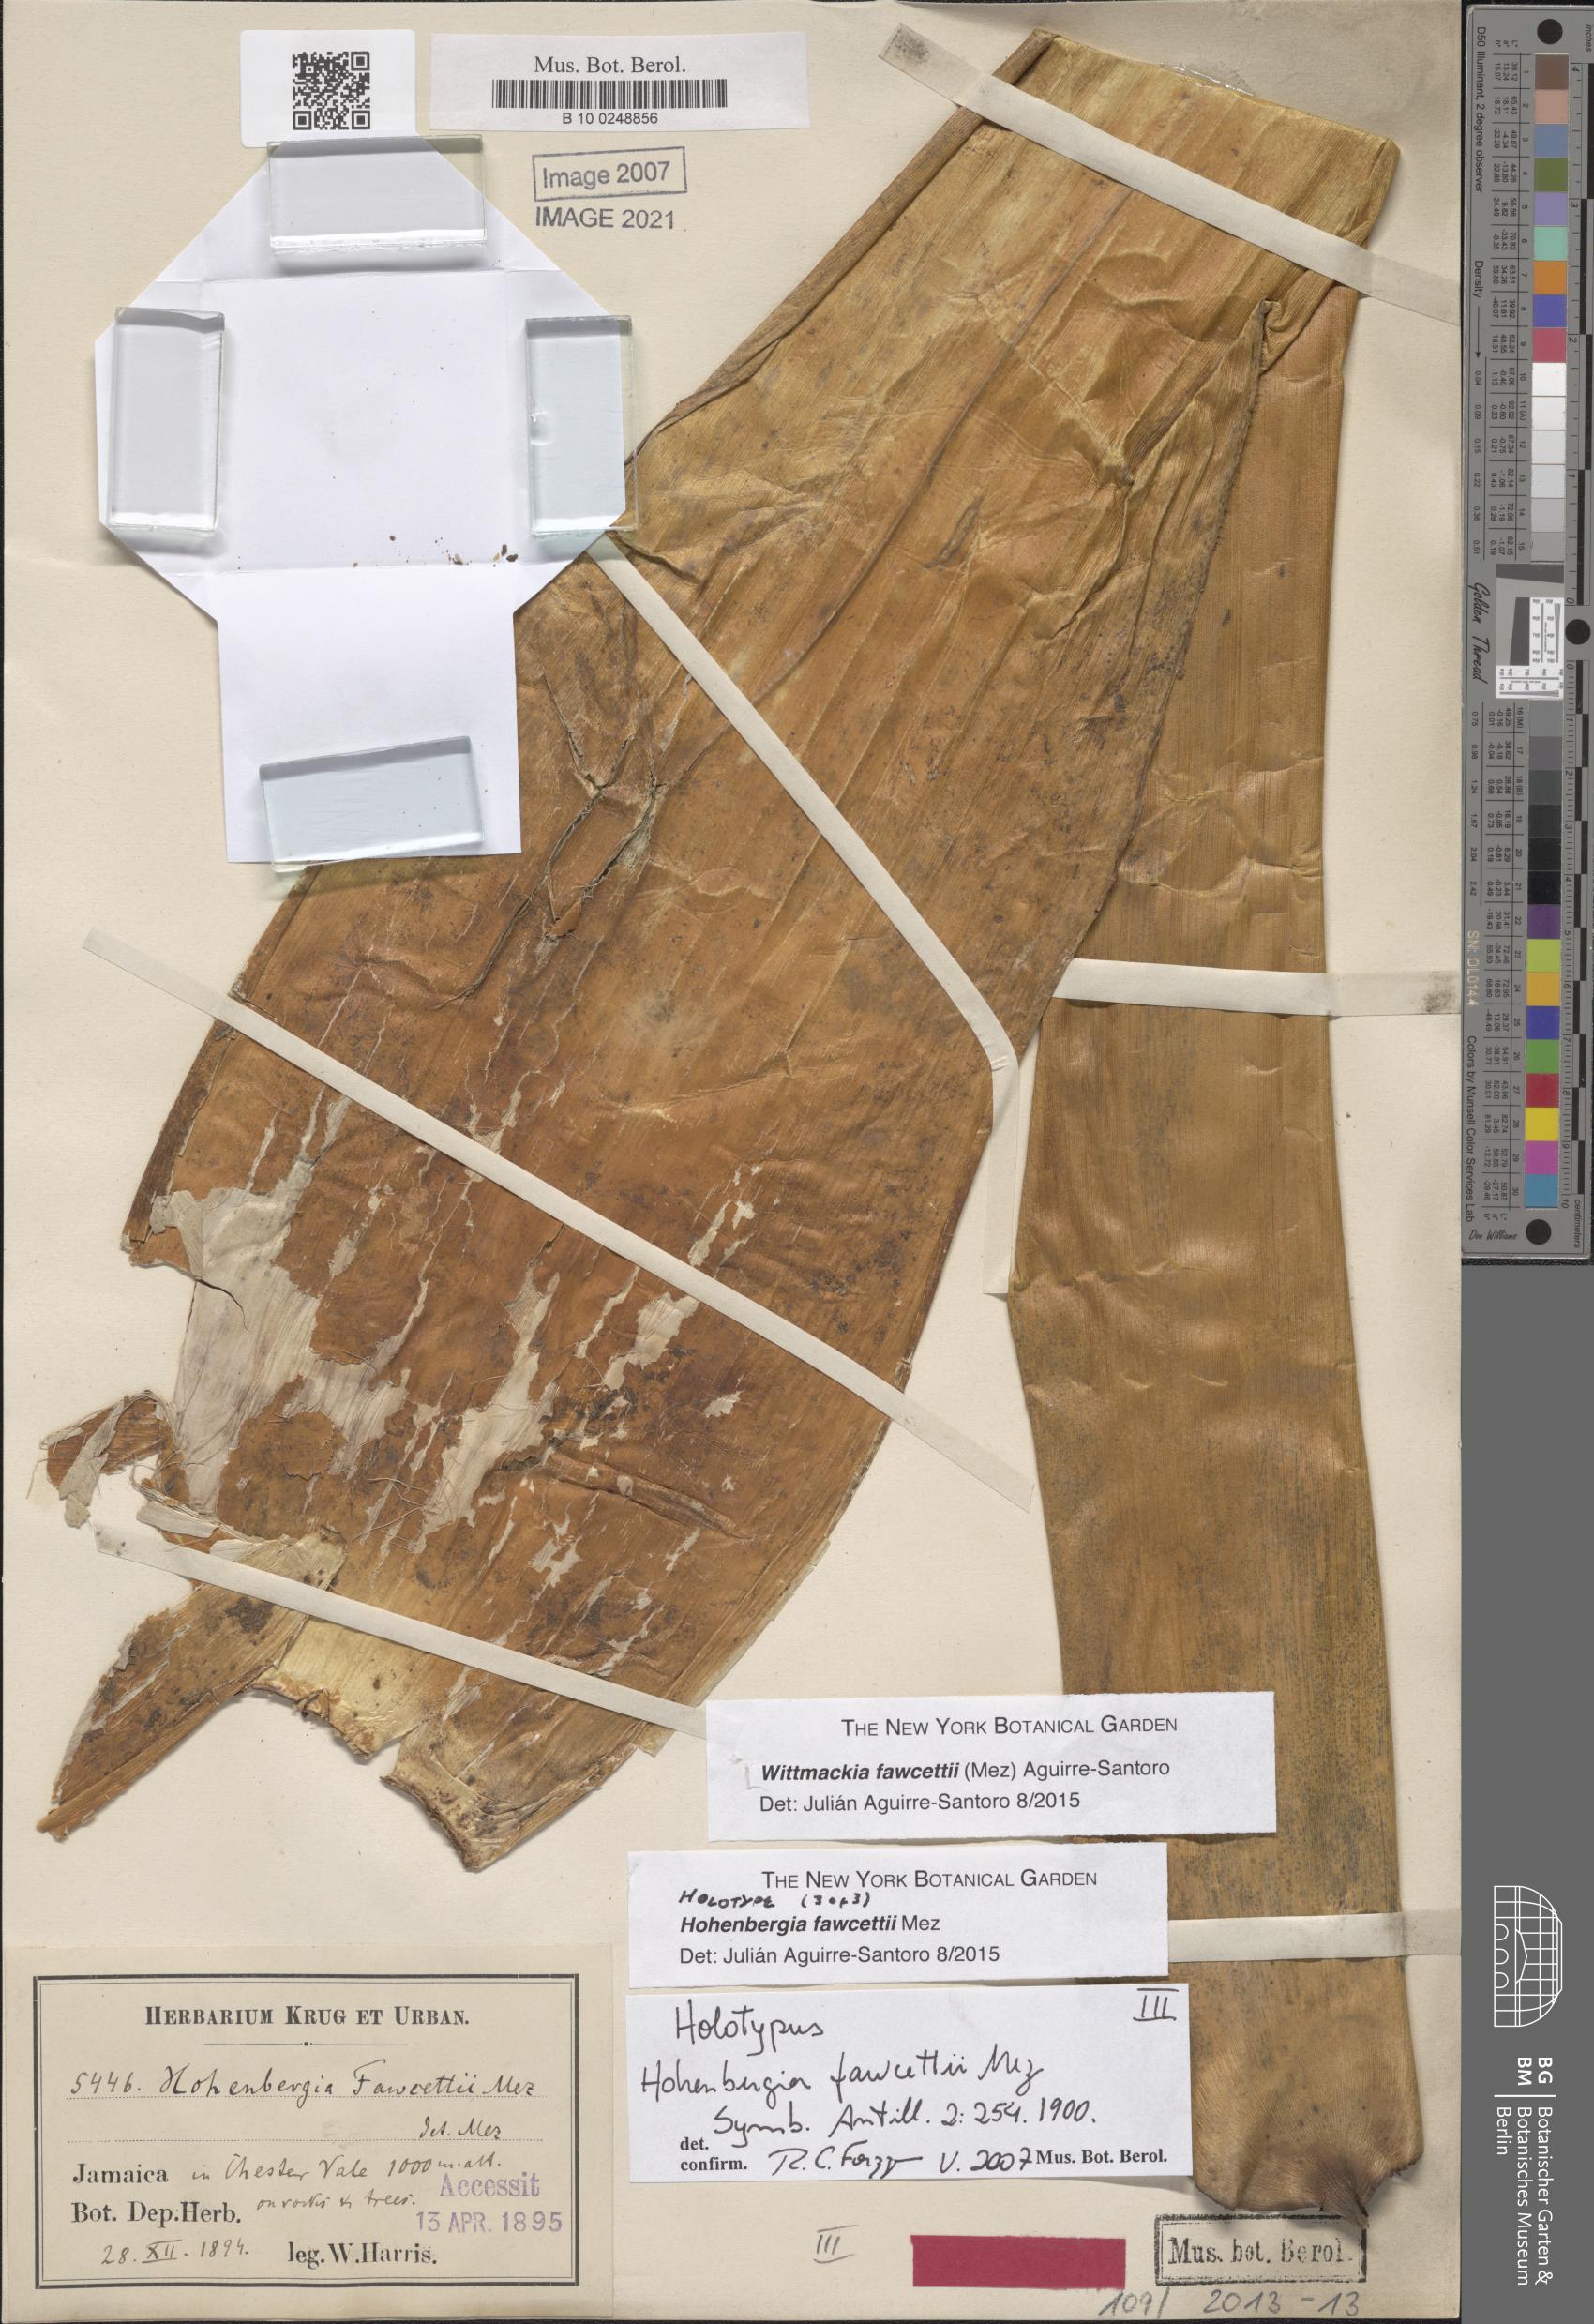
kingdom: Plantae
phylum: Tracheophyta
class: Liliopsida
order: Poales
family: Bromeliaceae
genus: Wittmackia
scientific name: Wittmackia fawcettii
